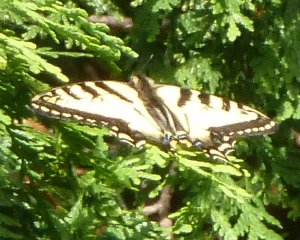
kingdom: Animalia
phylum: Arthropoda
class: Insecta
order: Lepidoptera
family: Papilionidae
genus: Pterourus
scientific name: Pterourus canadensis
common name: Canadian Tiger Swallowtail
